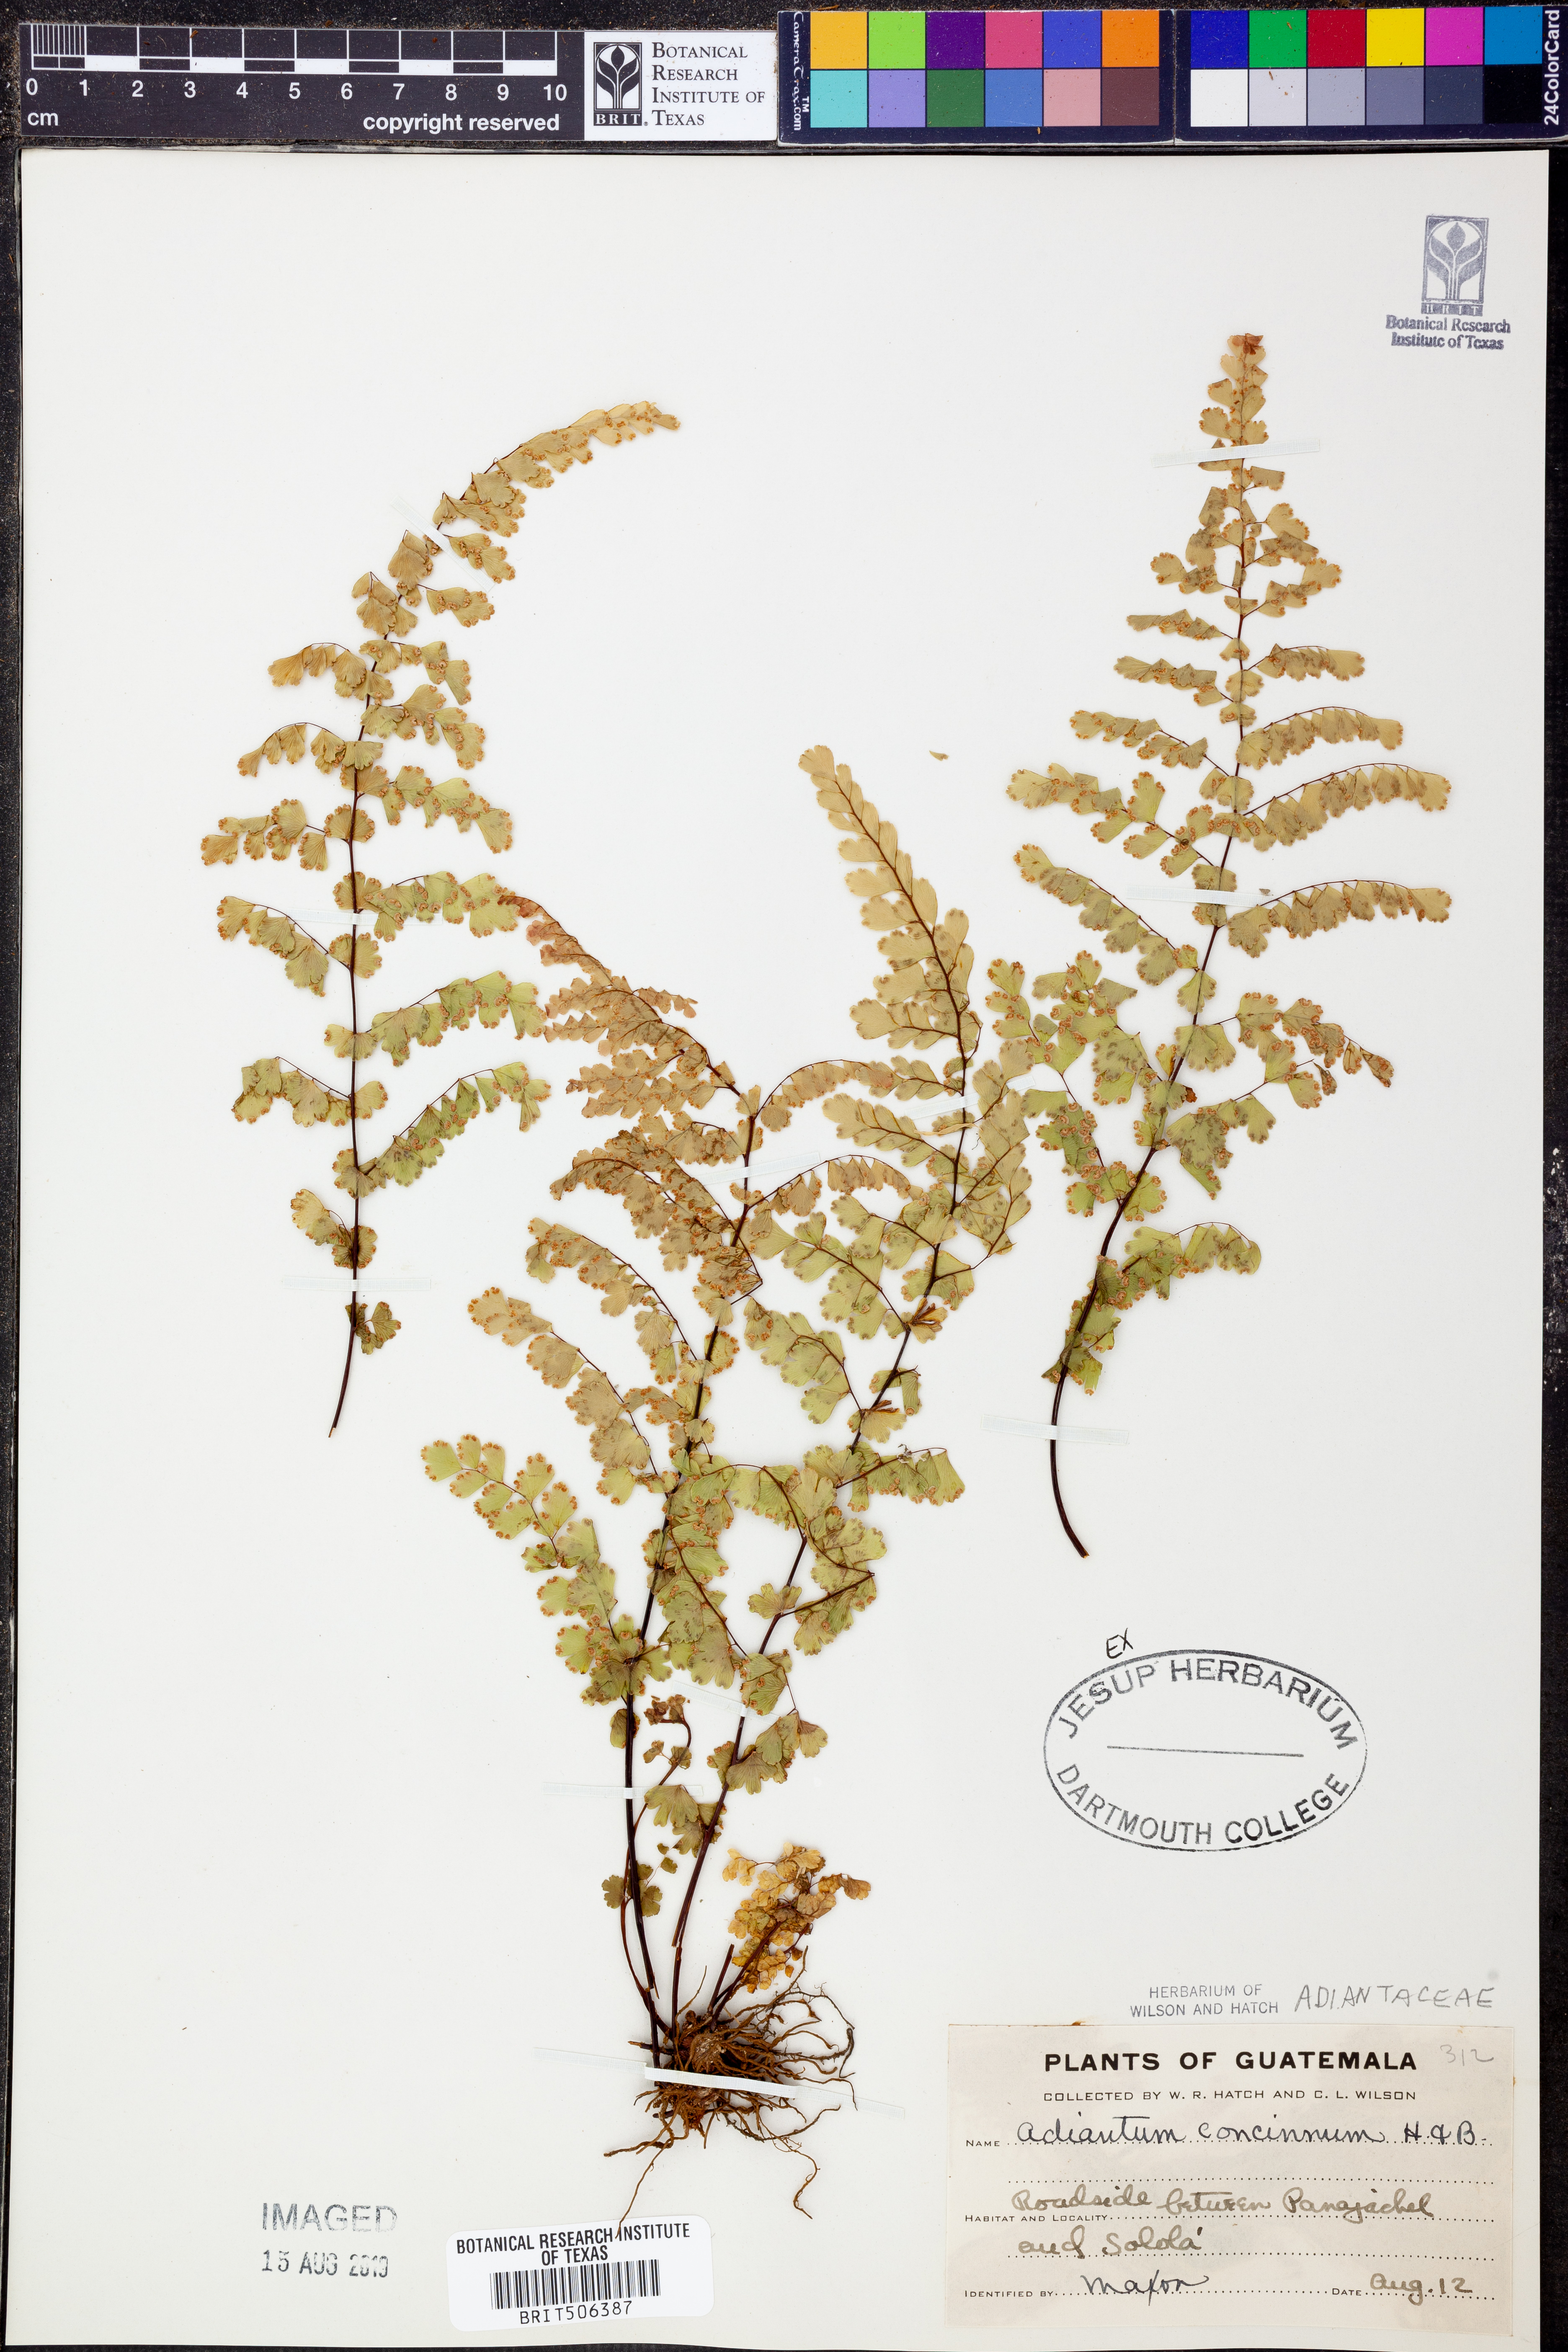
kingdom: Plantae
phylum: Tracheophyta
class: Polypodiopsida
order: Polypodiales
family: Pteridaceae
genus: Adiantum
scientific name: Adiantum concinnum
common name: Brittle maidenhair fern
